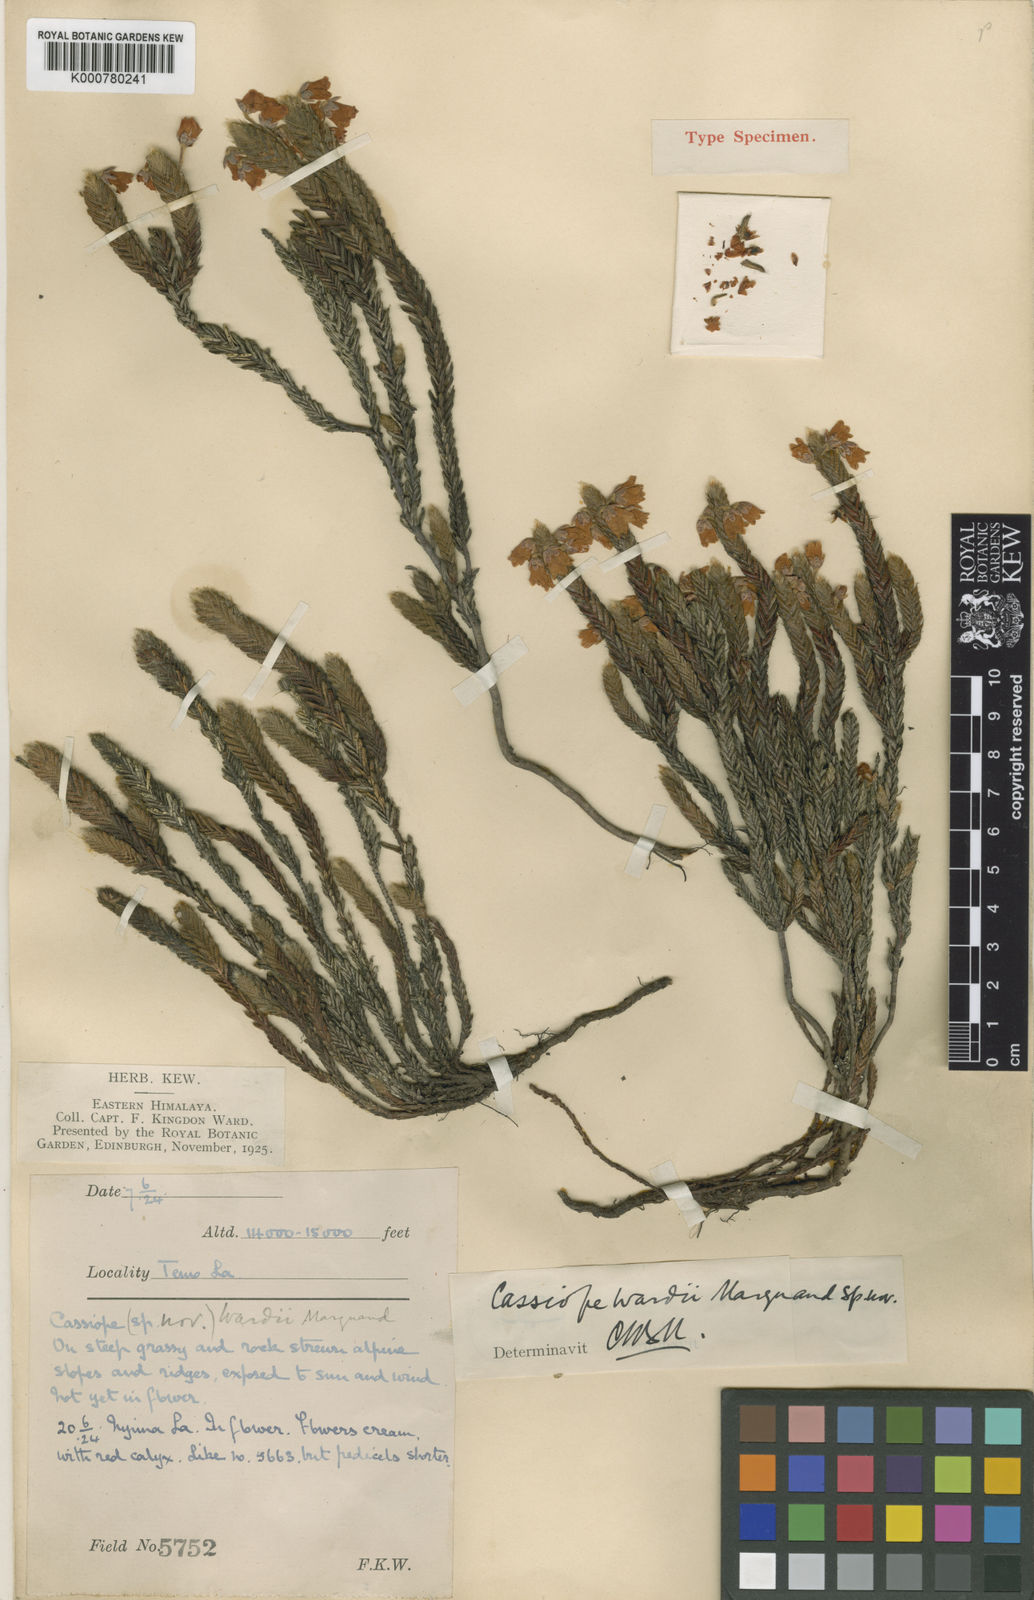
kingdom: Plantae
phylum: Tracheophyta
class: Magnoliopsida
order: Ericales
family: Ericaceae
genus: Cassiope
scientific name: Cassiope wardii
